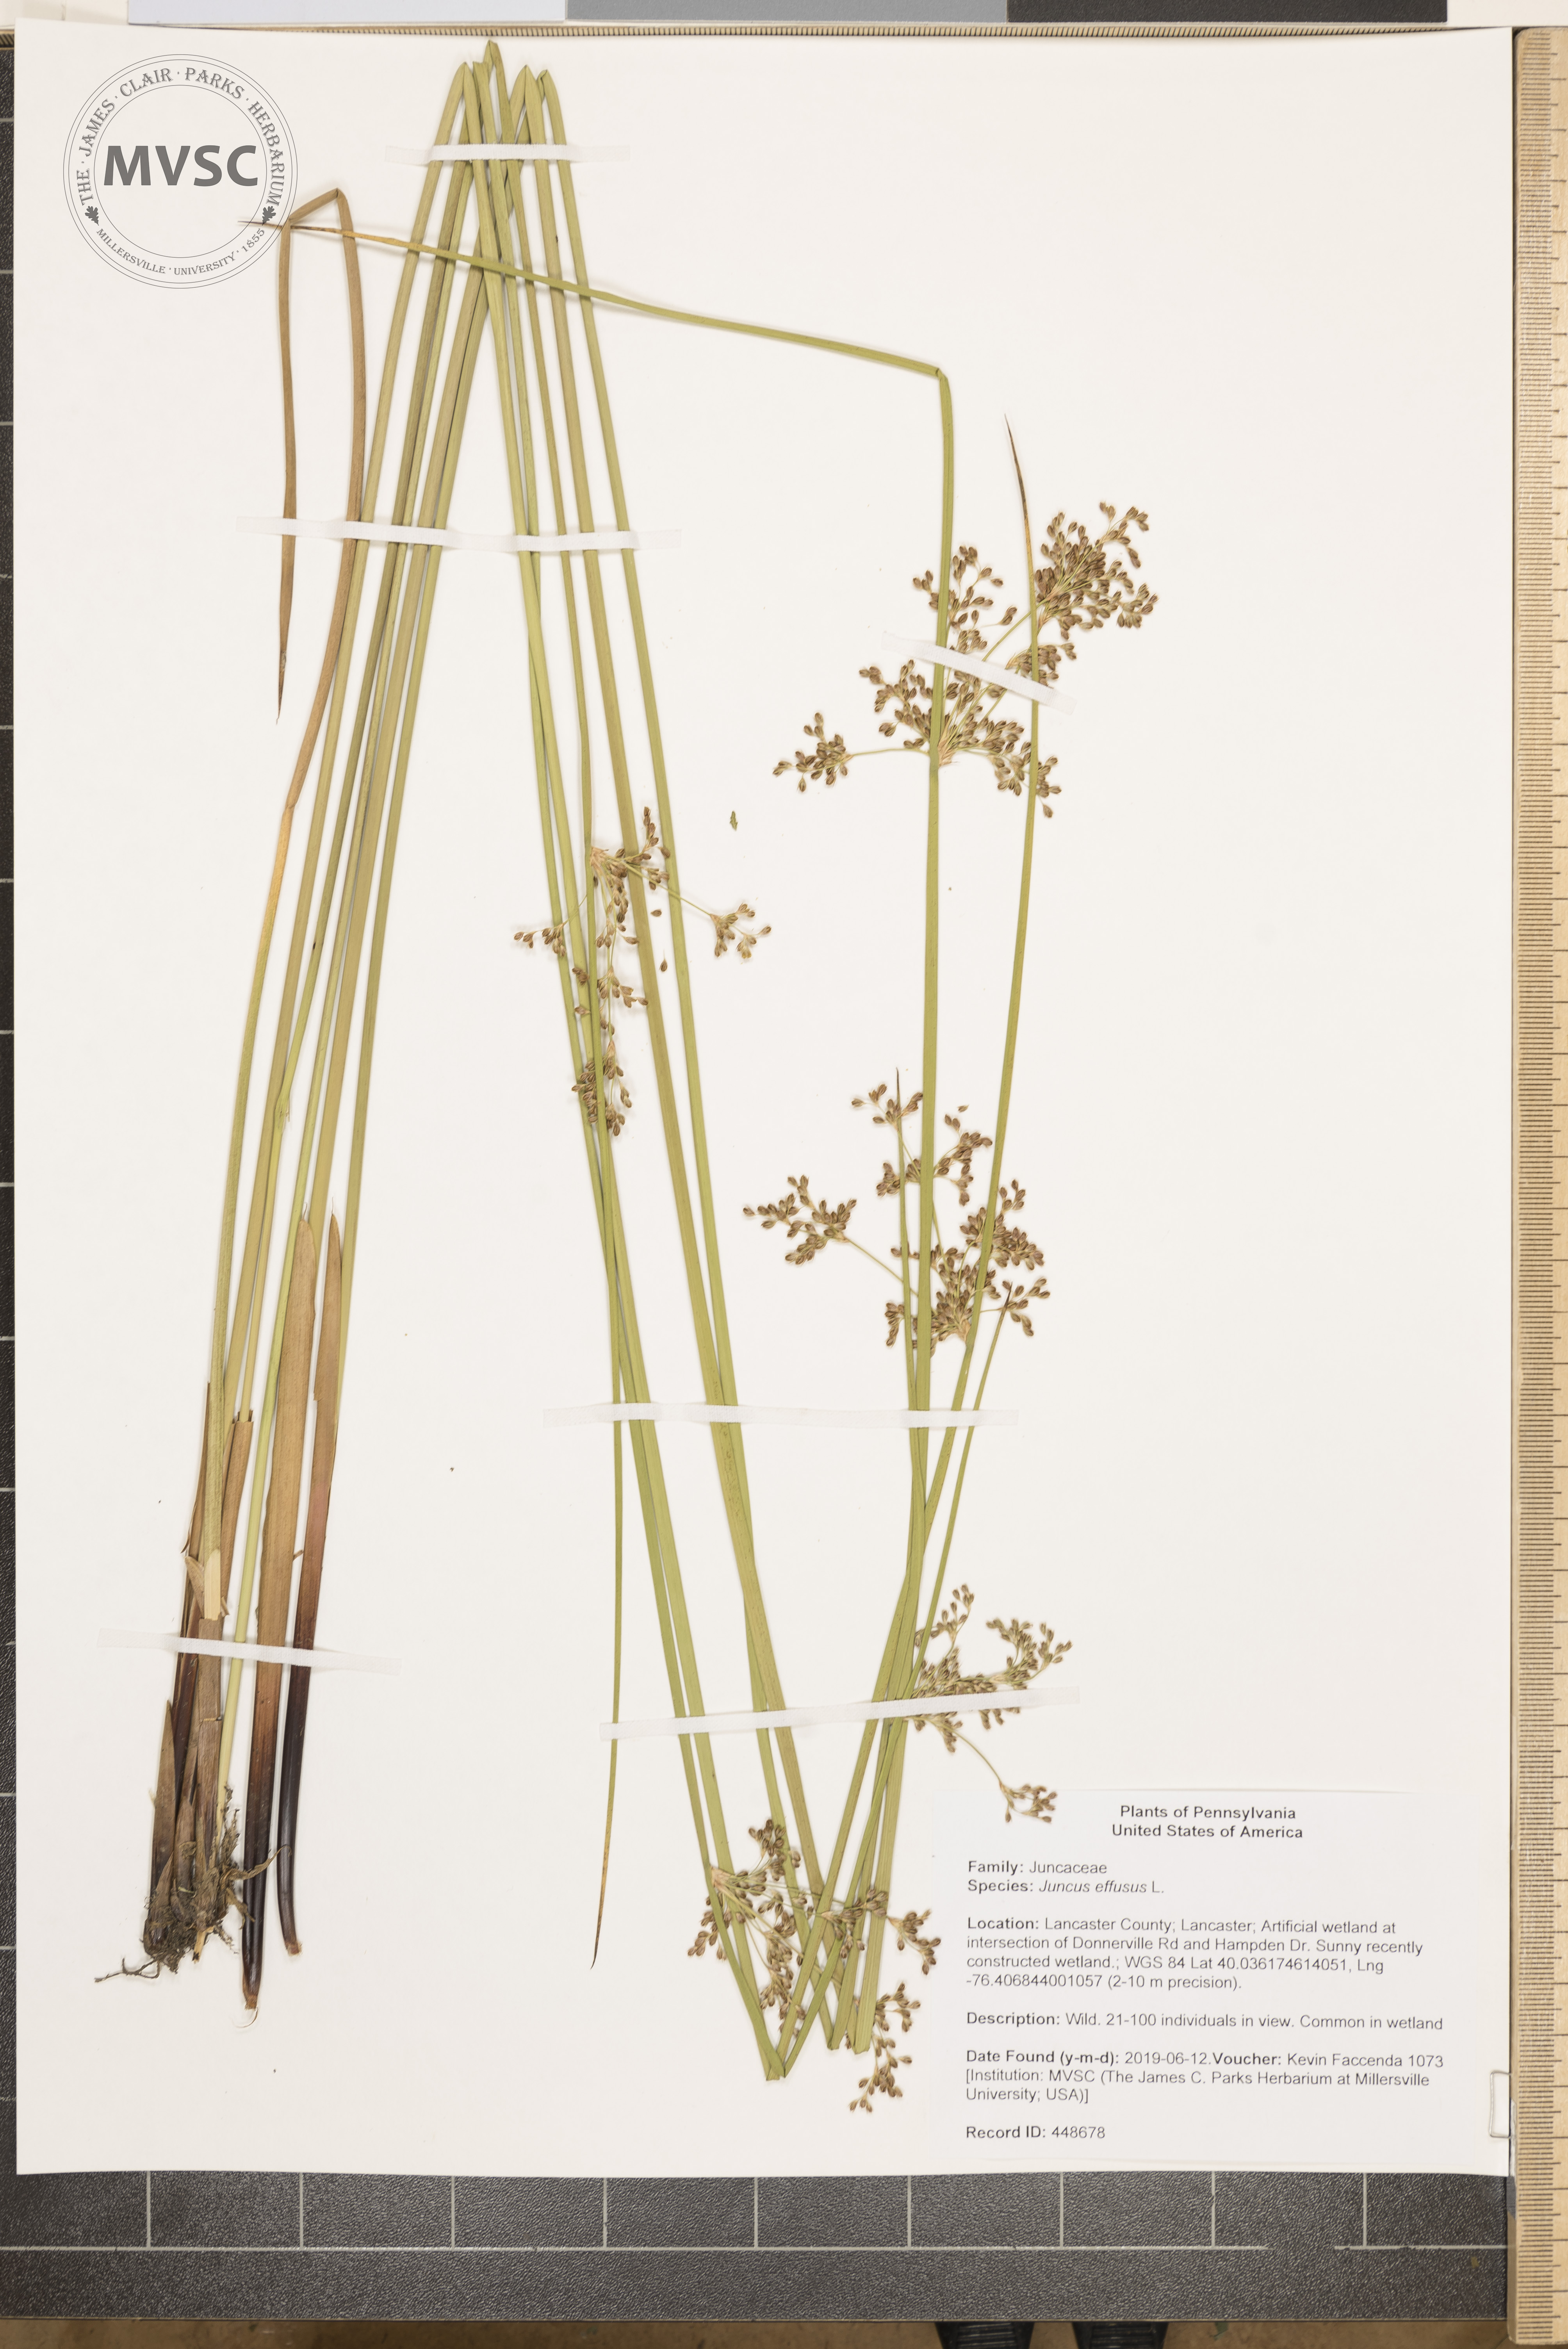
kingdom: Plantae
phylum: Tracheophyta
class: Liliopsida
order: Poales
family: Juncaceae
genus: Juncus
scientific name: Juncus effusus
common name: Soft rush
